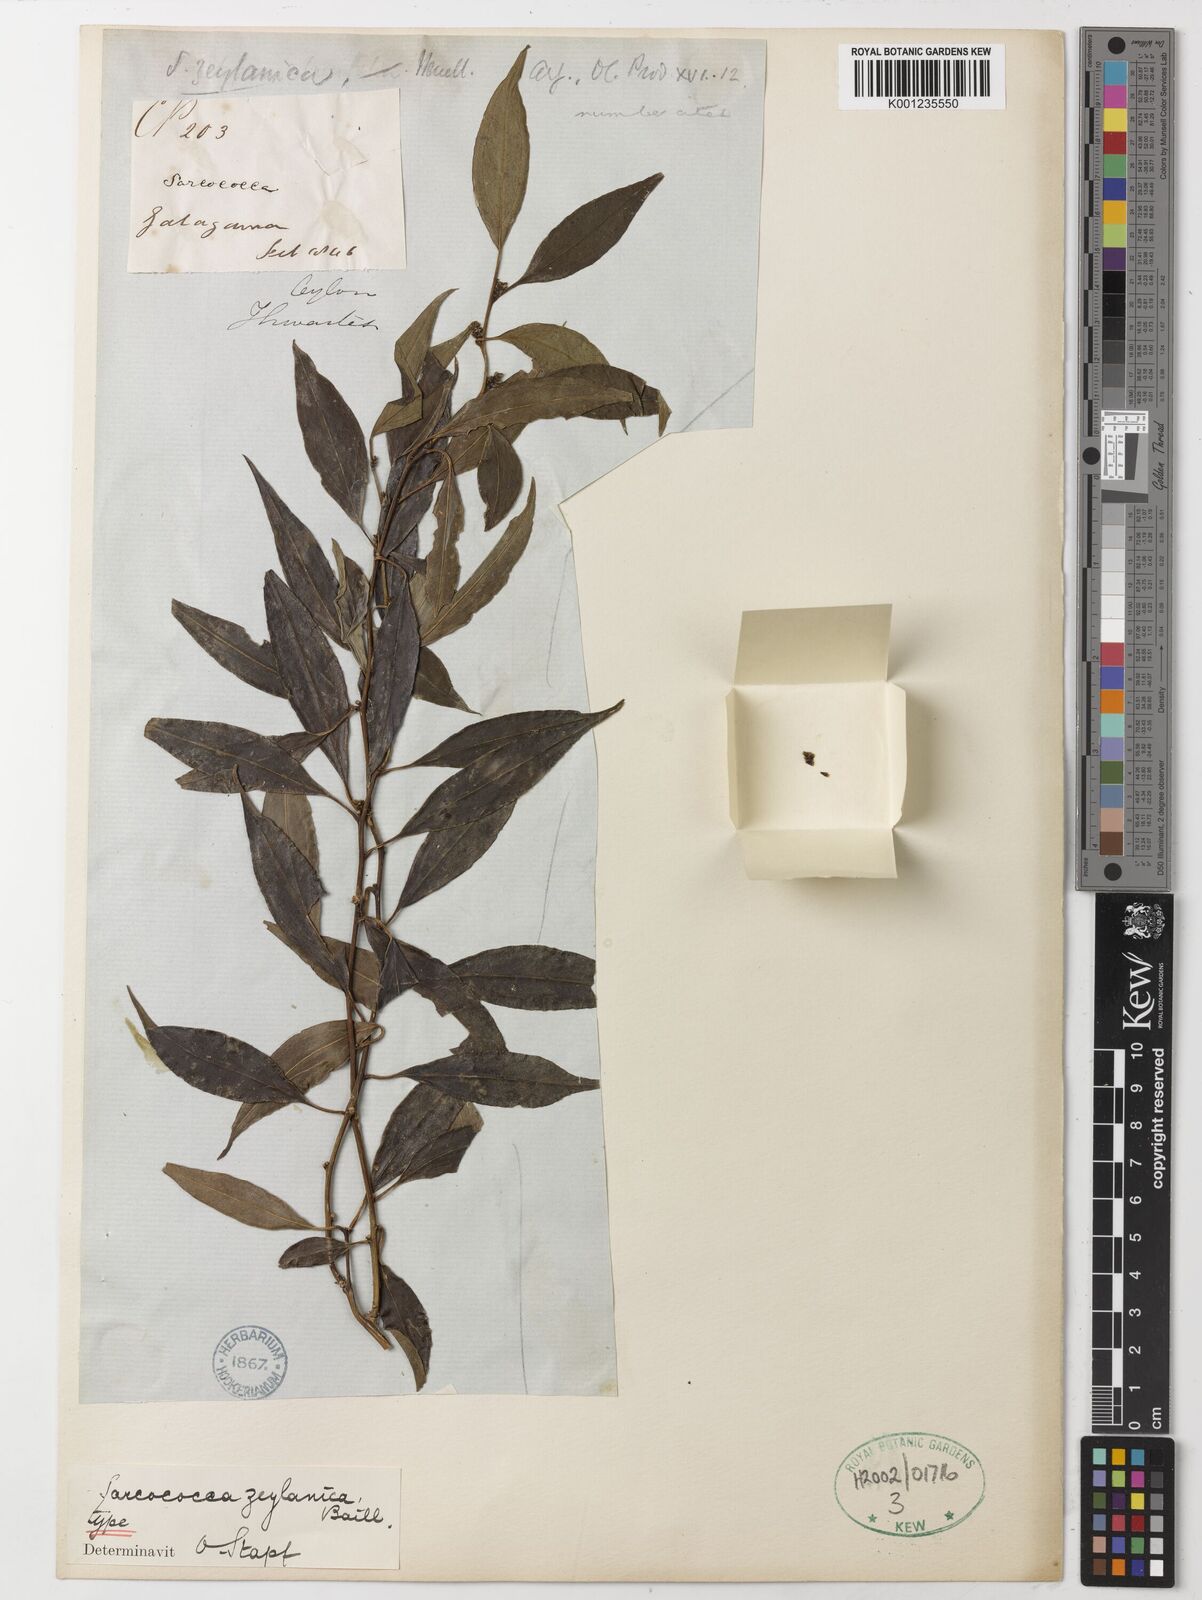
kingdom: Plantae
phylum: Tracheophyta
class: Magnoliopsida
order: Buxales
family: Buxaceae
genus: Sarcococca
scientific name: Sarcococca zeylanica
